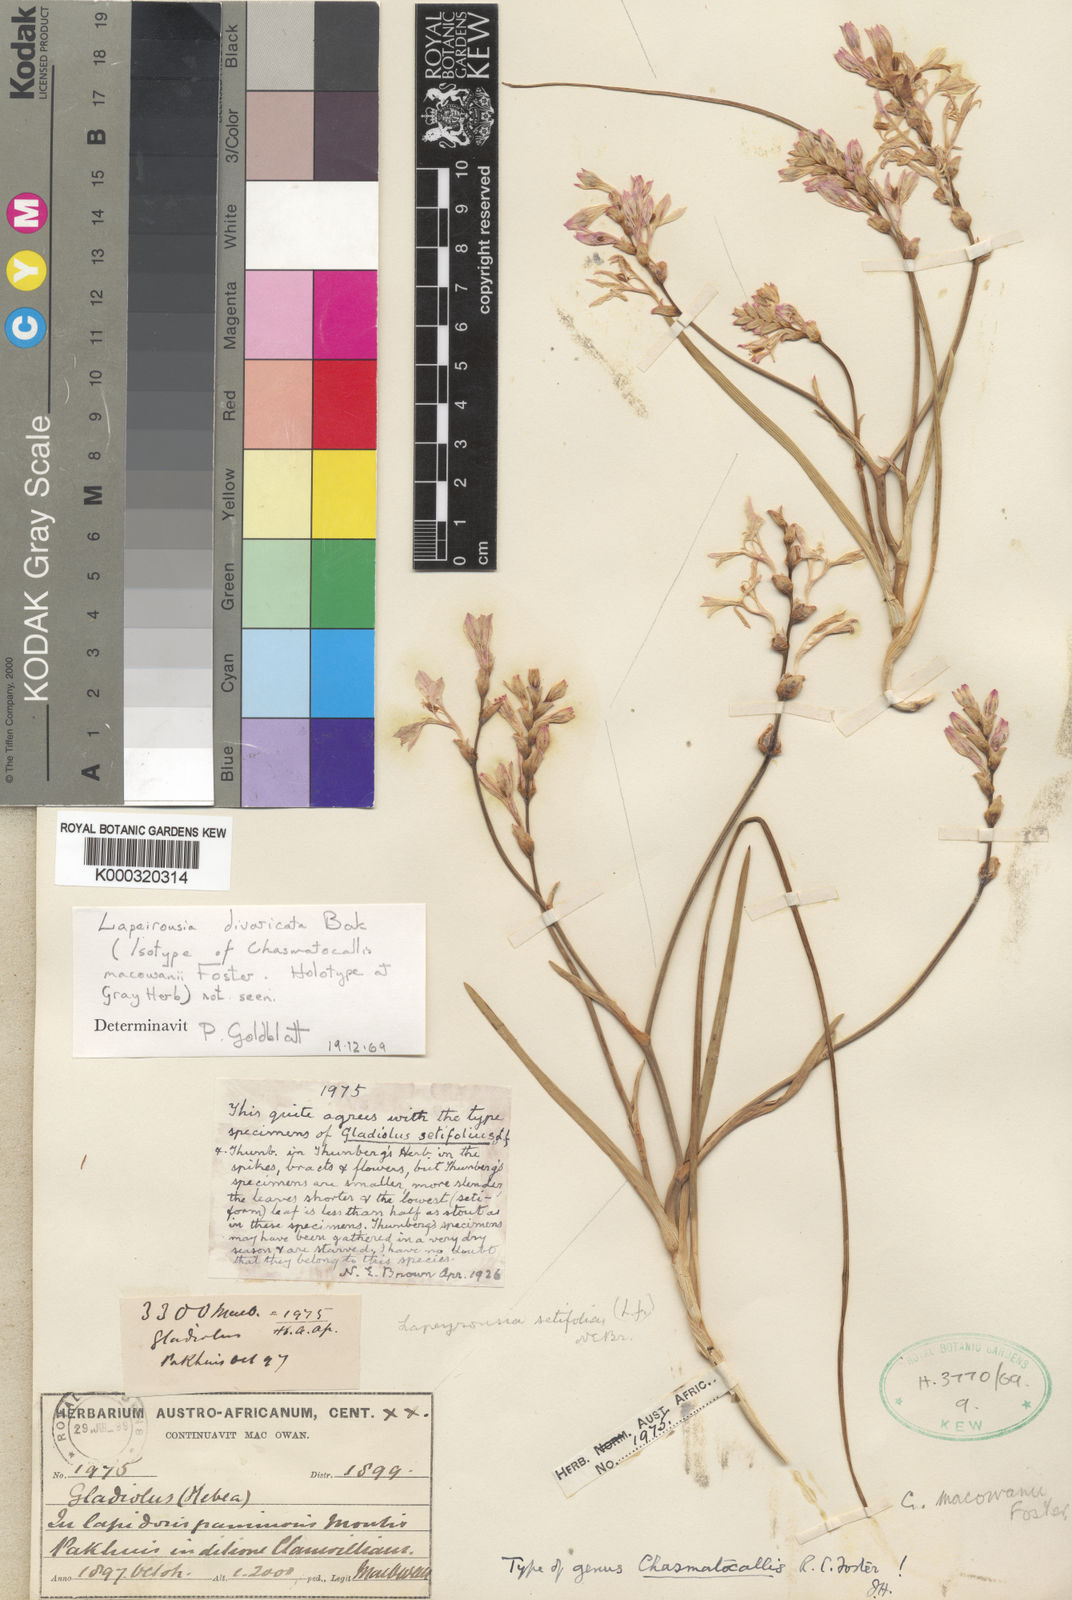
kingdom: Plantae
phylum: Tracheophyta
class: Liliopsida
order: Asparagales
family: Iridaceae
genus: Lapeirousia
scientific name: Lapeirousia divaricata
